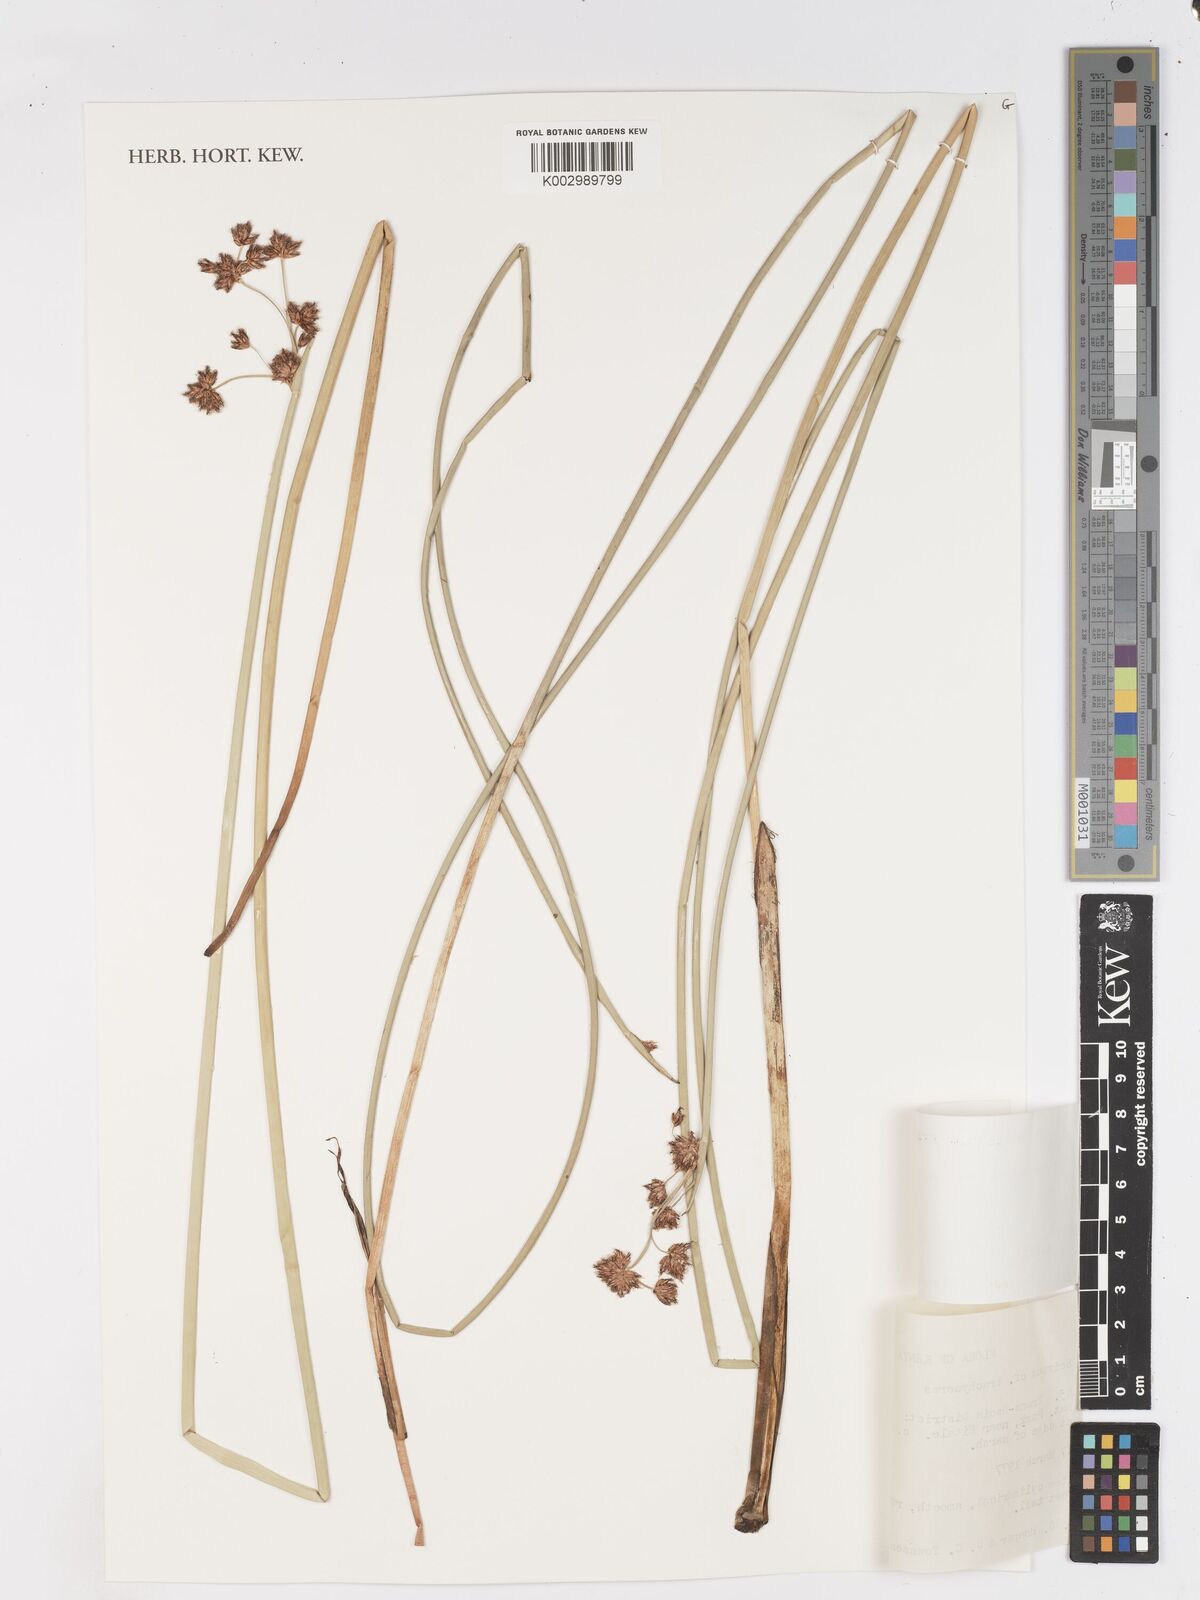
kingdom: Plantae
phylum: Tracheophyta
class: Liliopsida
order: Poales
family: Cyperaceae
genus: Schoenoplectiella
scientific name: Schoenoplectiella brachyceras
